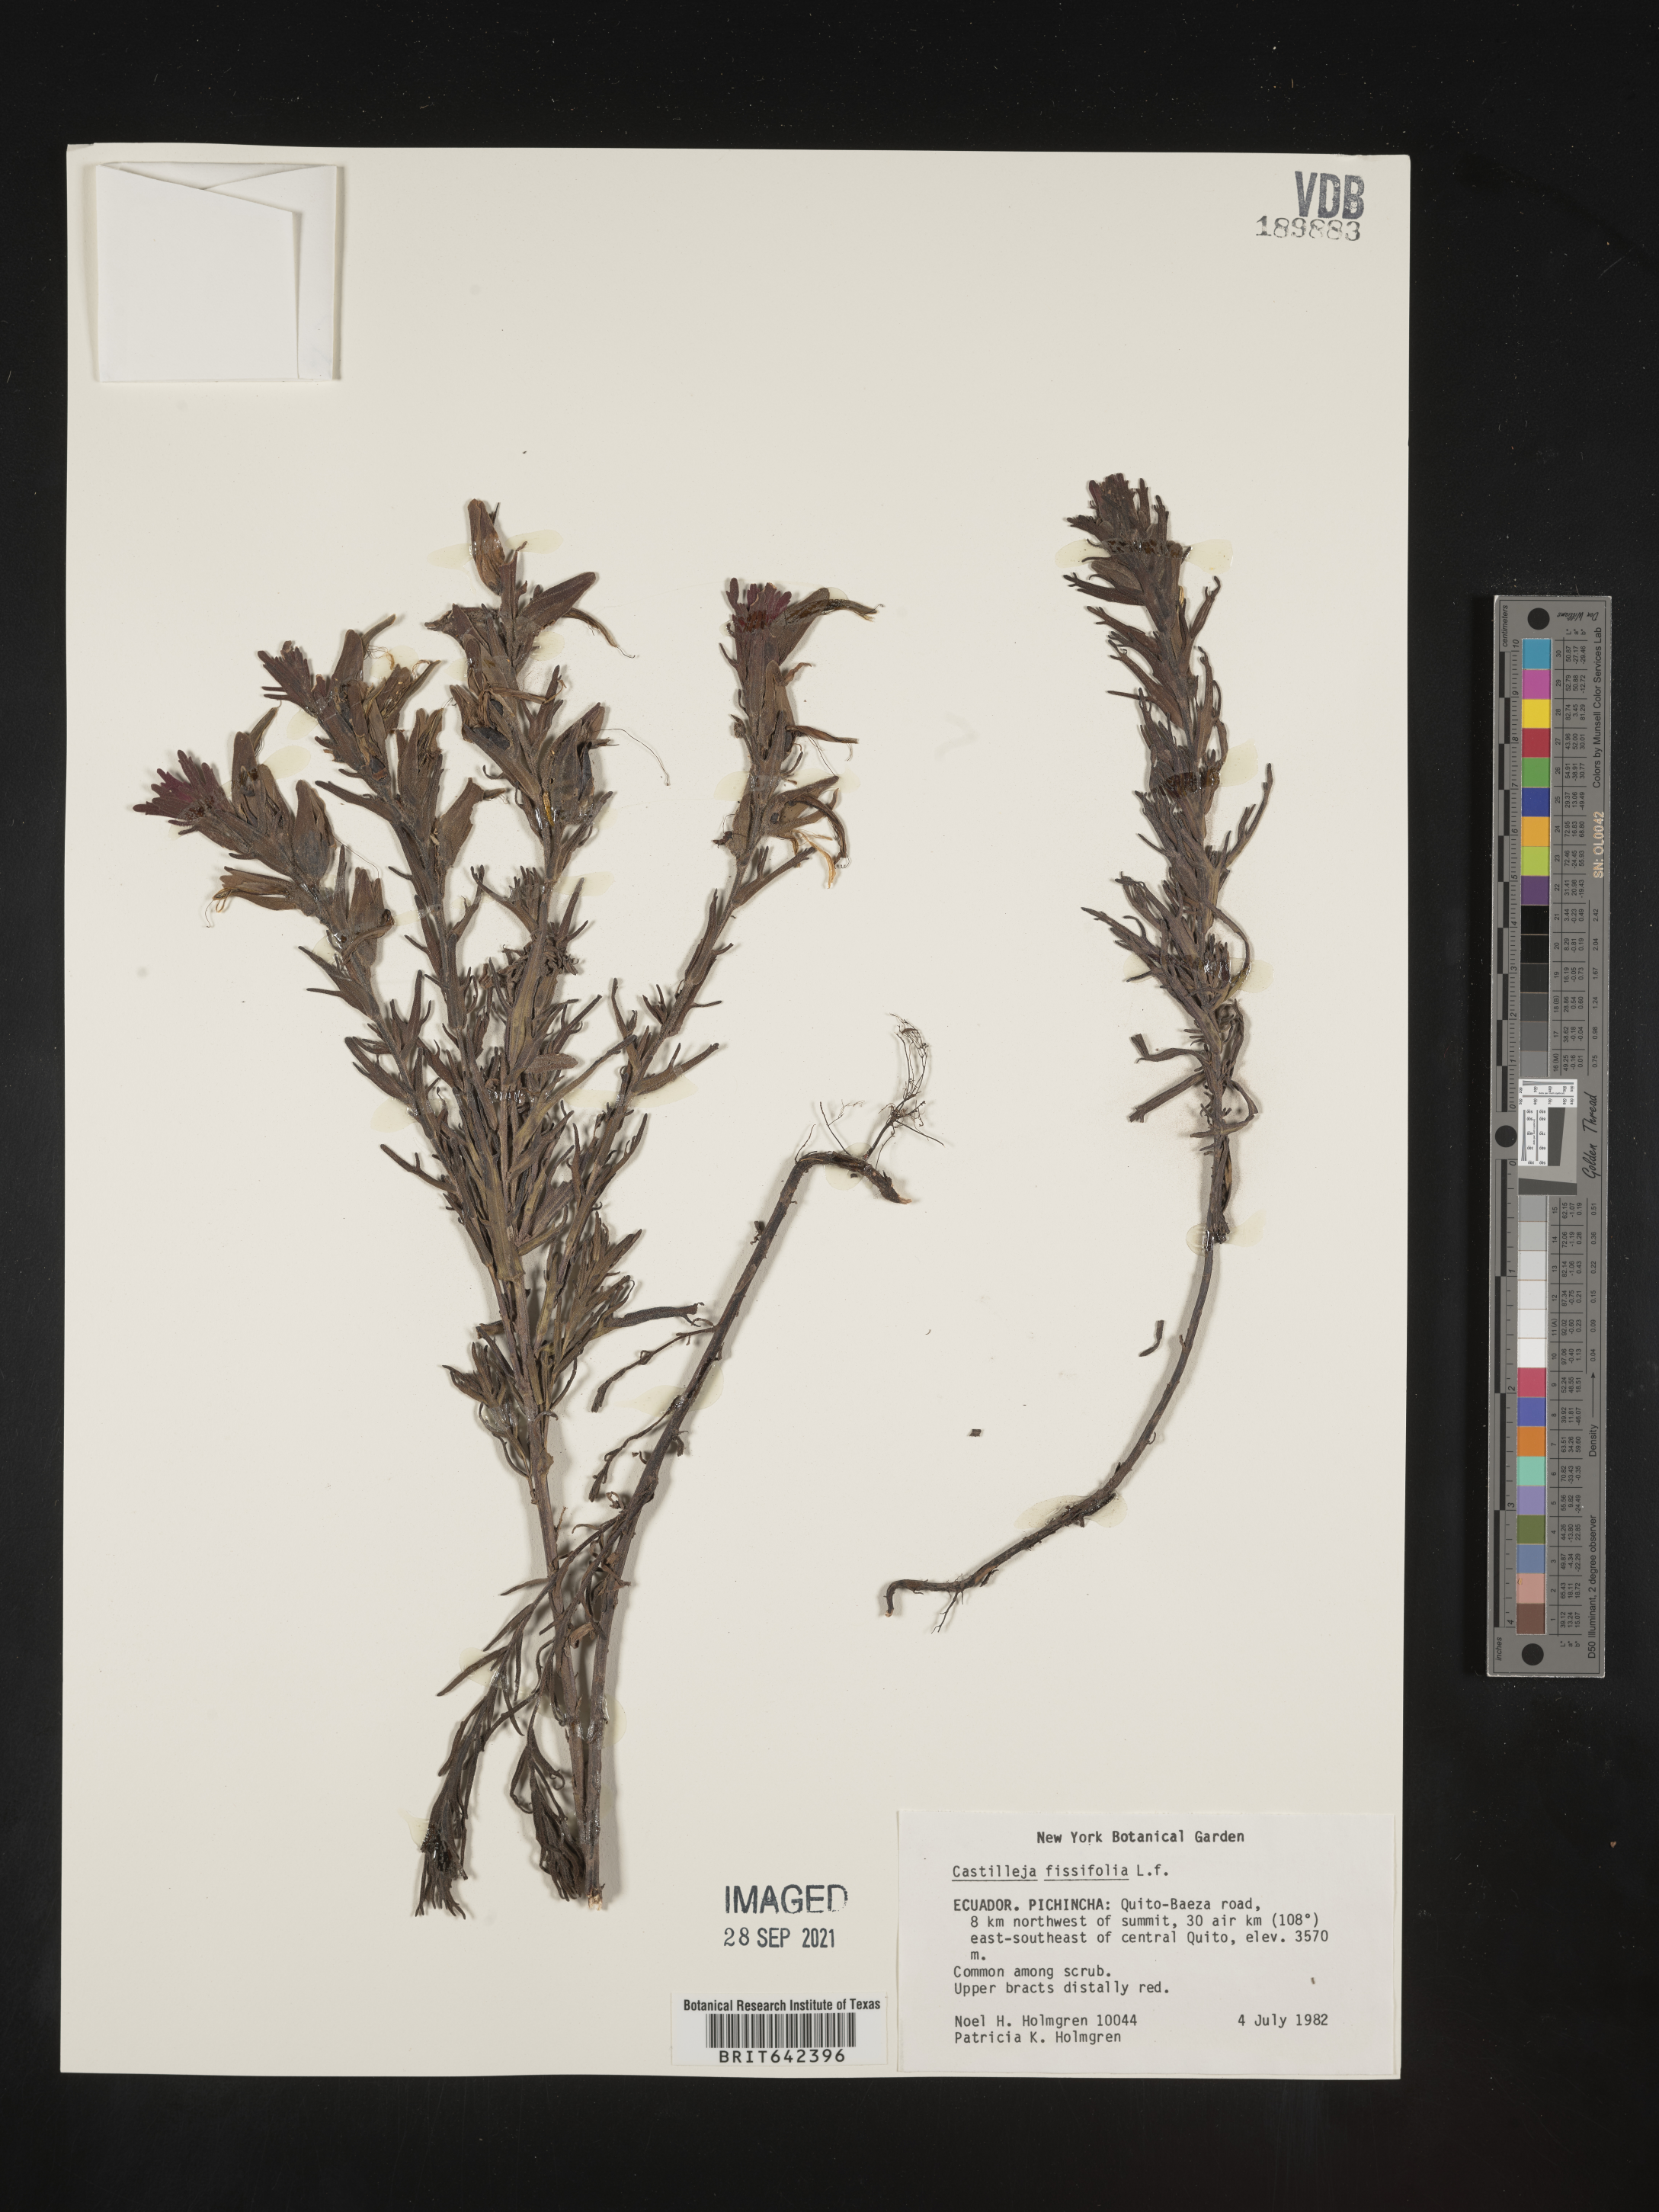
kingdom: Plantae
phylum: Tracheophyta
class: Magnoliopsida
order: Lamiales
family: Orobanchaceae
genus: Castilleja
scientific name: Castilleja
